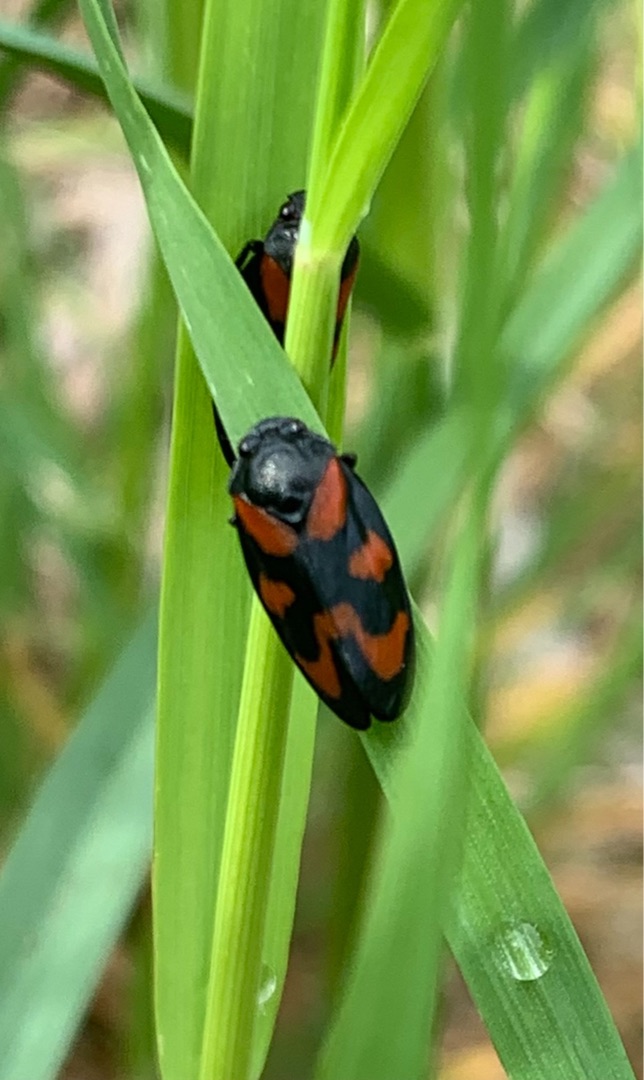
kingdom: Animalia
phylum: Arthropoda
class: Insecta
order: Hemiptera
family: Cercopidae
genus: Cercopis
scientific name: Cercopis vulnerata
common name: Blodcikade
